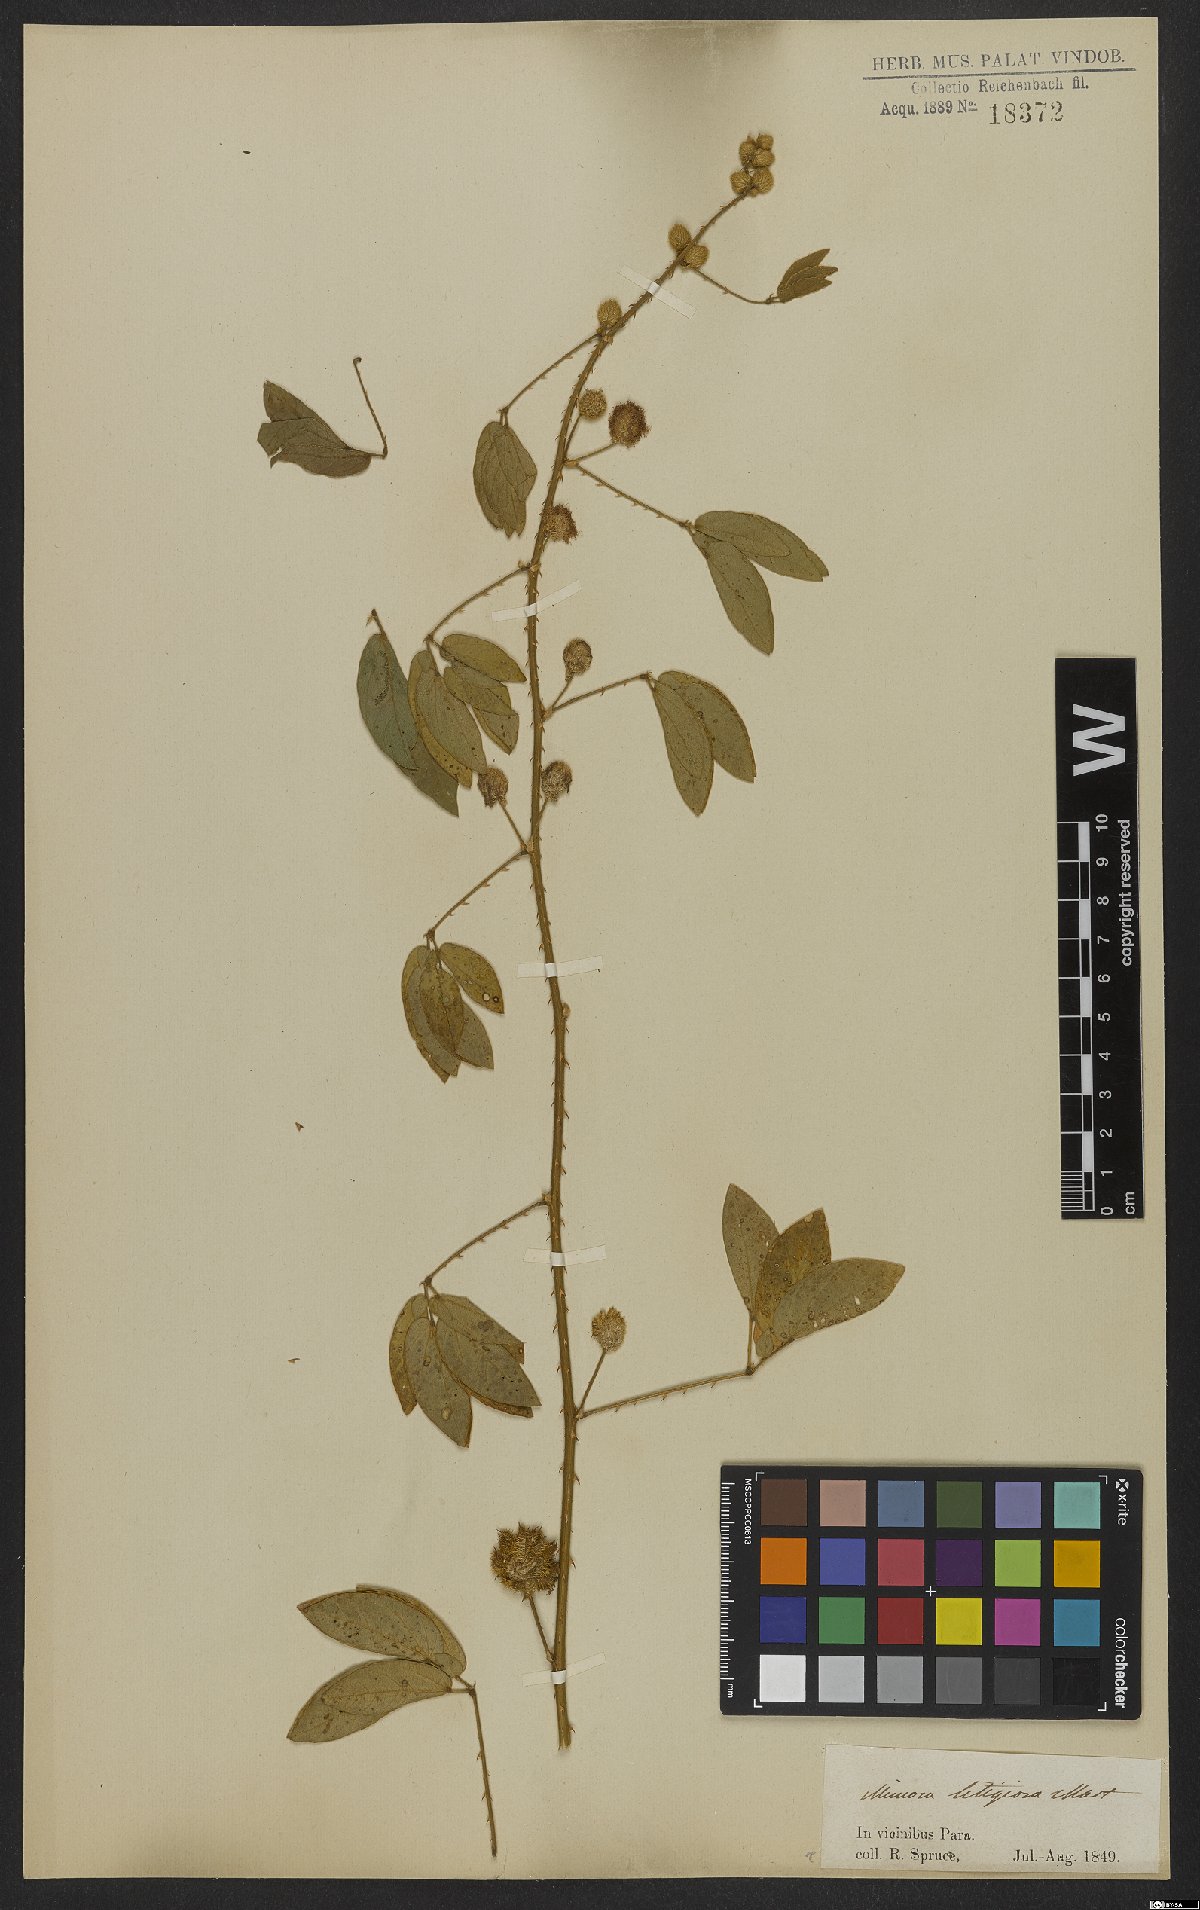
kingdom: Plantae
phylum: Tracheophyta
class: Magnoliopsida
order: Fabales
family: Fabaceae
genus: Mimosa
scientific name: Mimosa sensitiva
